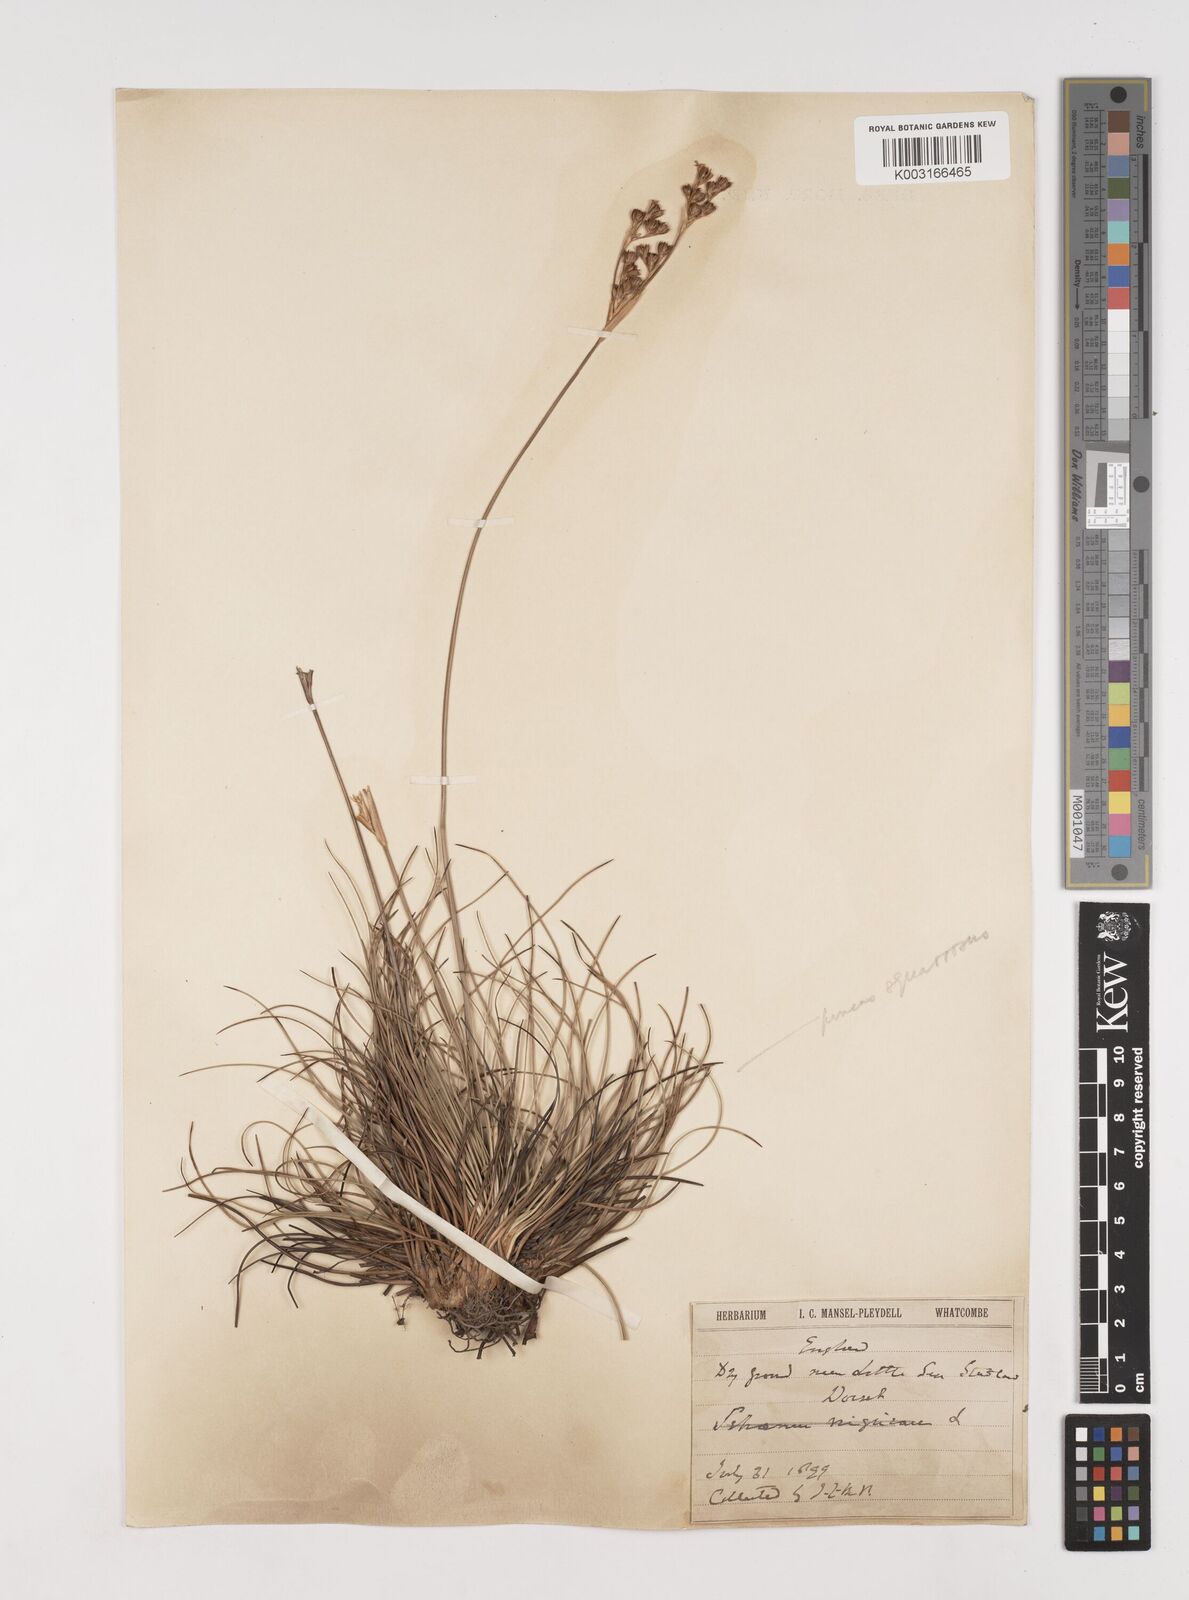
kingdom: Plantae
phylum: Tracheophyta
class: Liliopsida
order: Poales
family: Juncaceae
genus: Juncus
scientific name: Juncus squarrosus
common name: Heath rush
